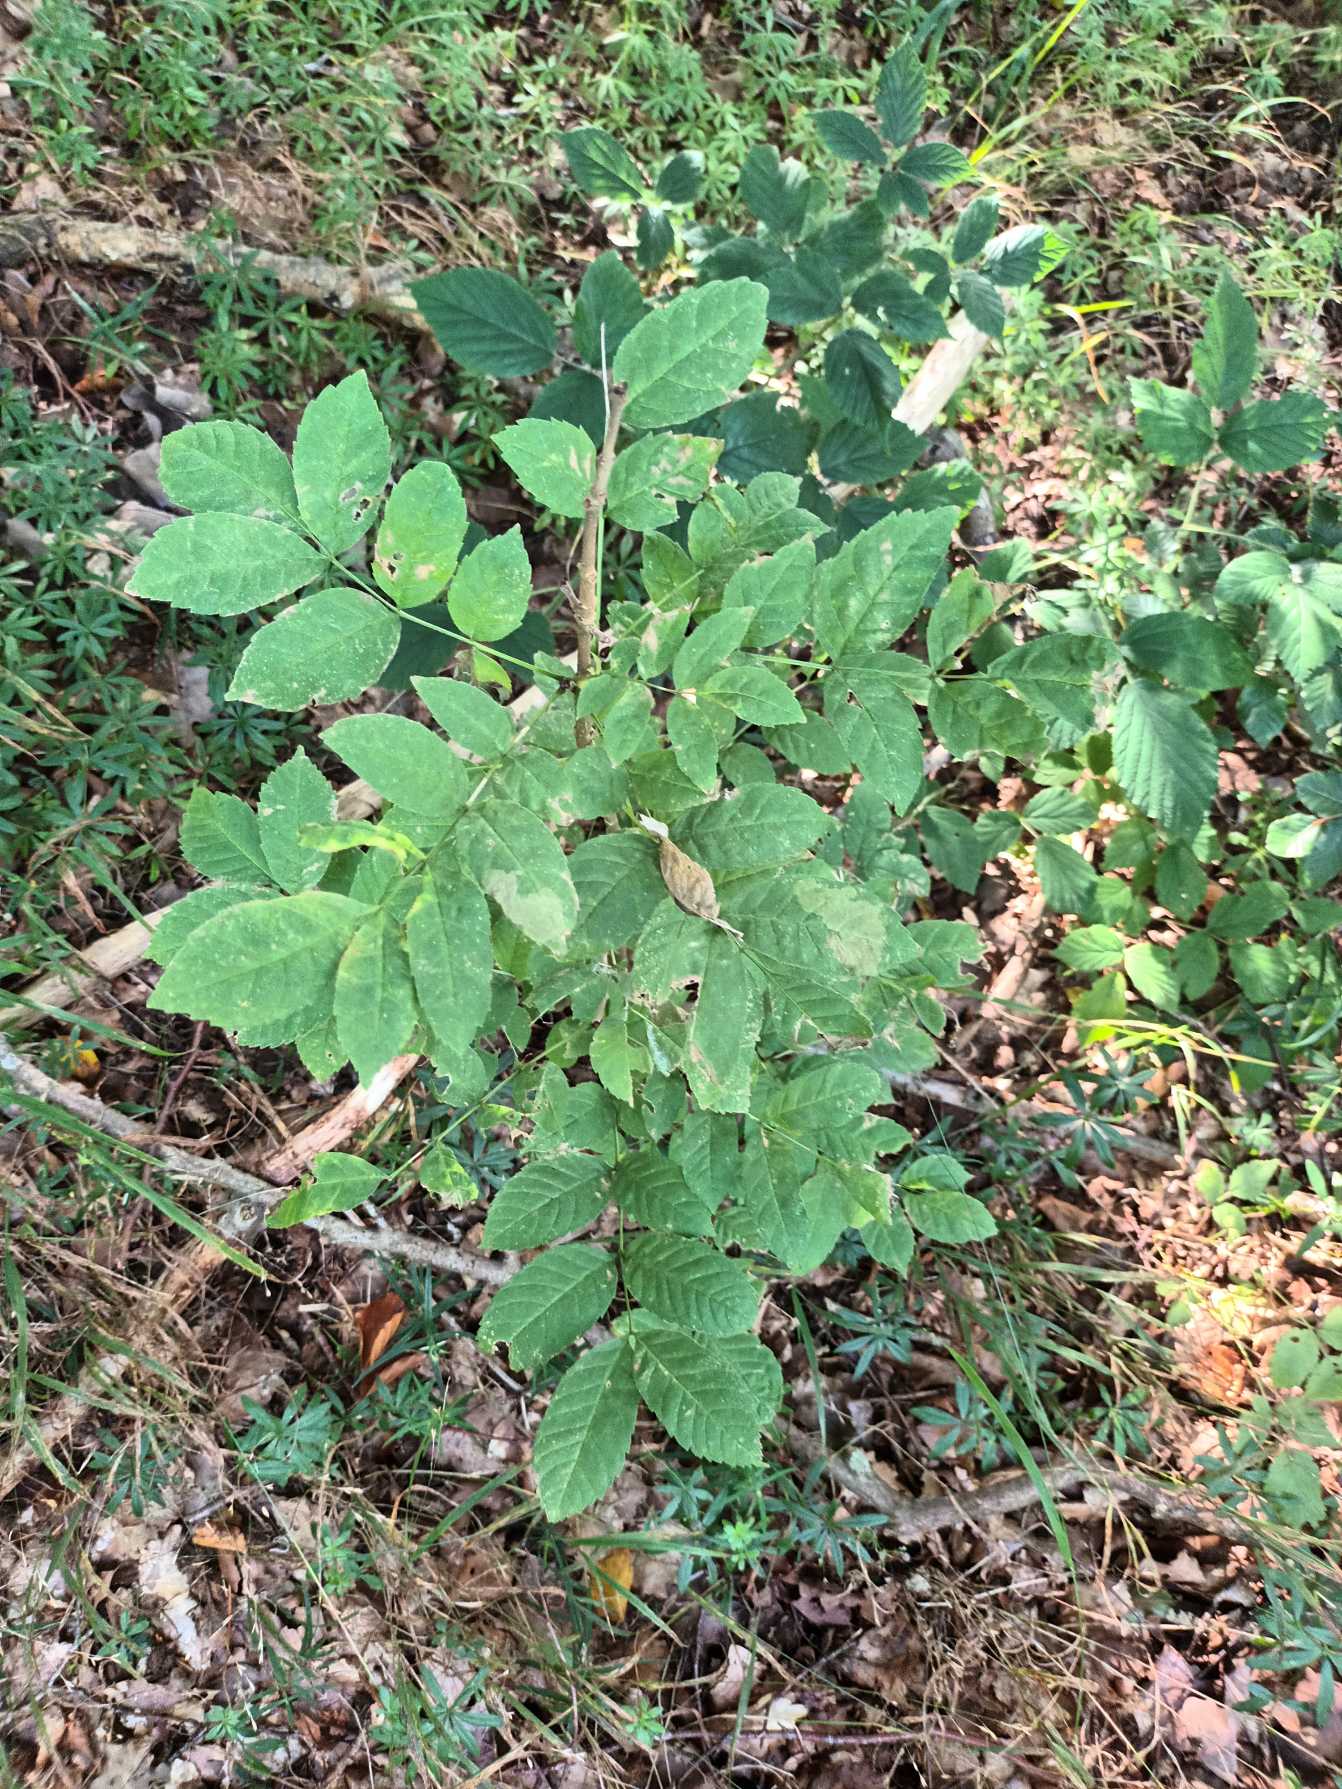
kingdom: Plantae
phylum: Tracheophyta
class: Magnoliopsida
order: Lamiales
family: Oleaceae
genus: Fraxinus
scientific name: Fraxinus excelsior
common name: Ask
